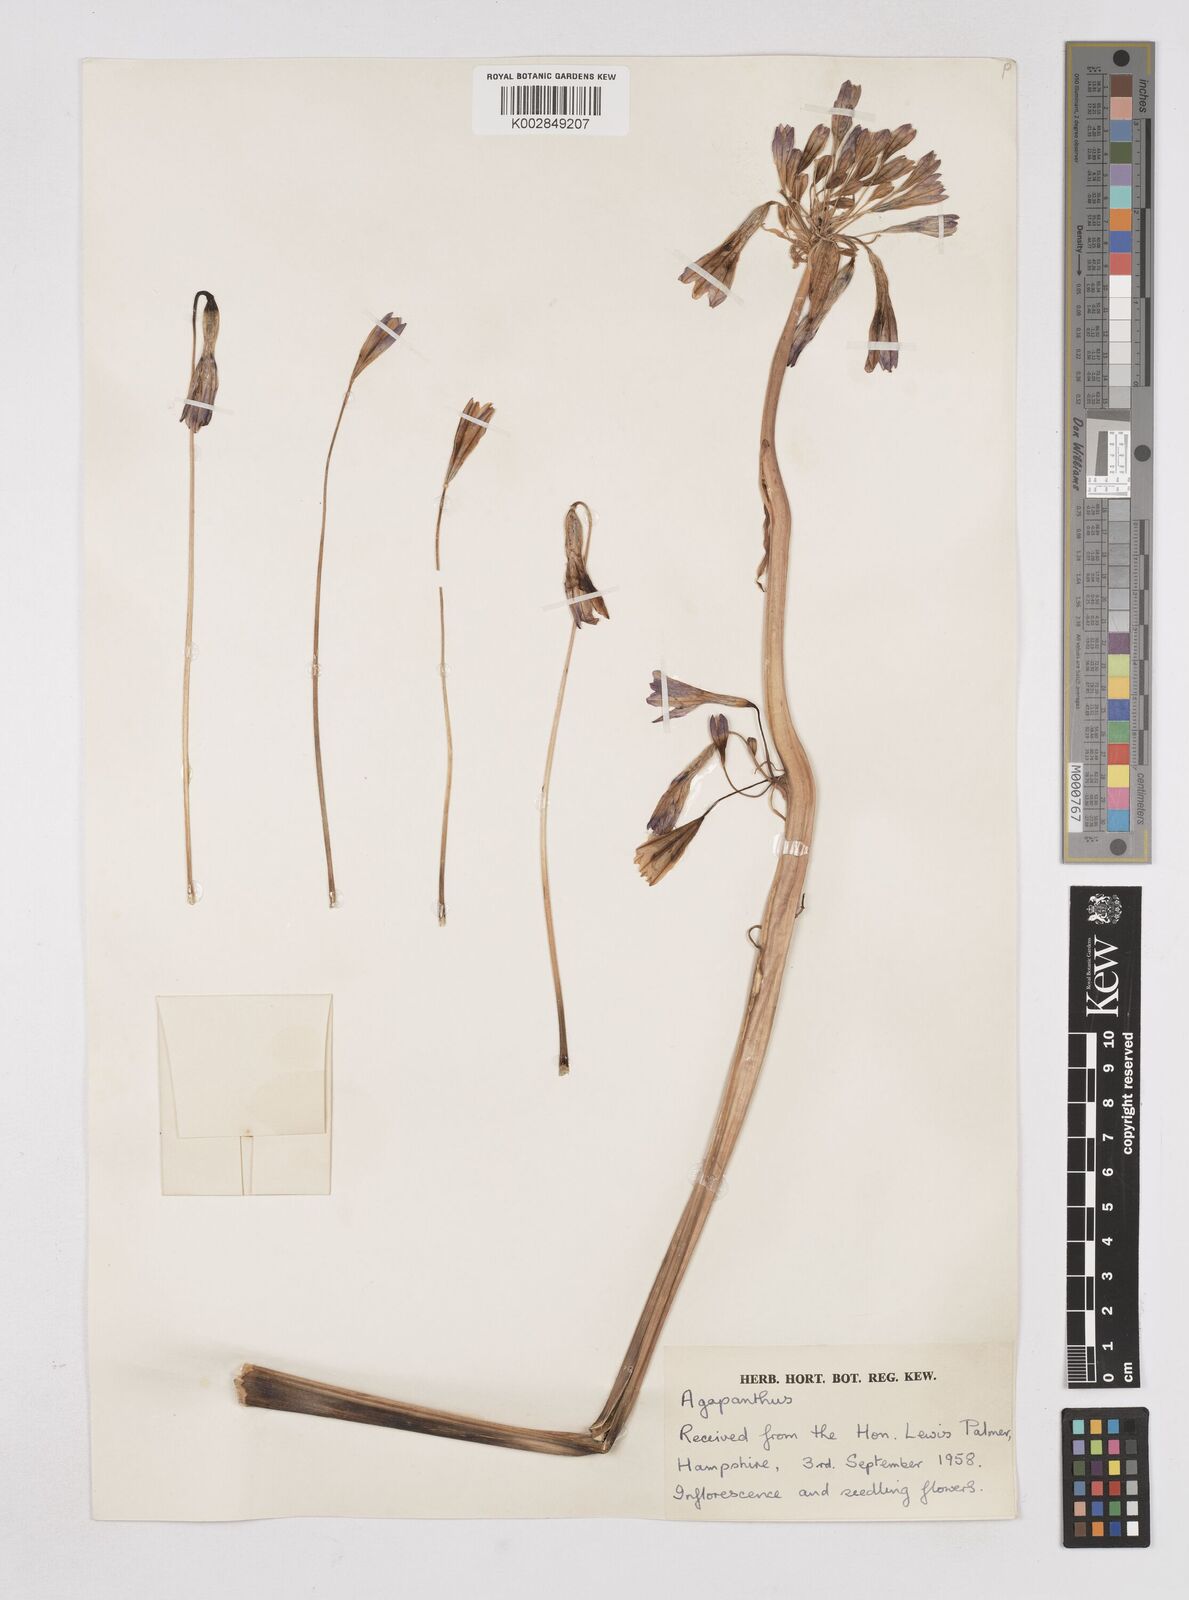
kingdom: Plantae
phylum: Tracheophyta
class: Liliopsida
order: Liliales
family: Liliaceae
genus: Agapanthus
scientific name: Agapanthus
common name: Agapanthus
